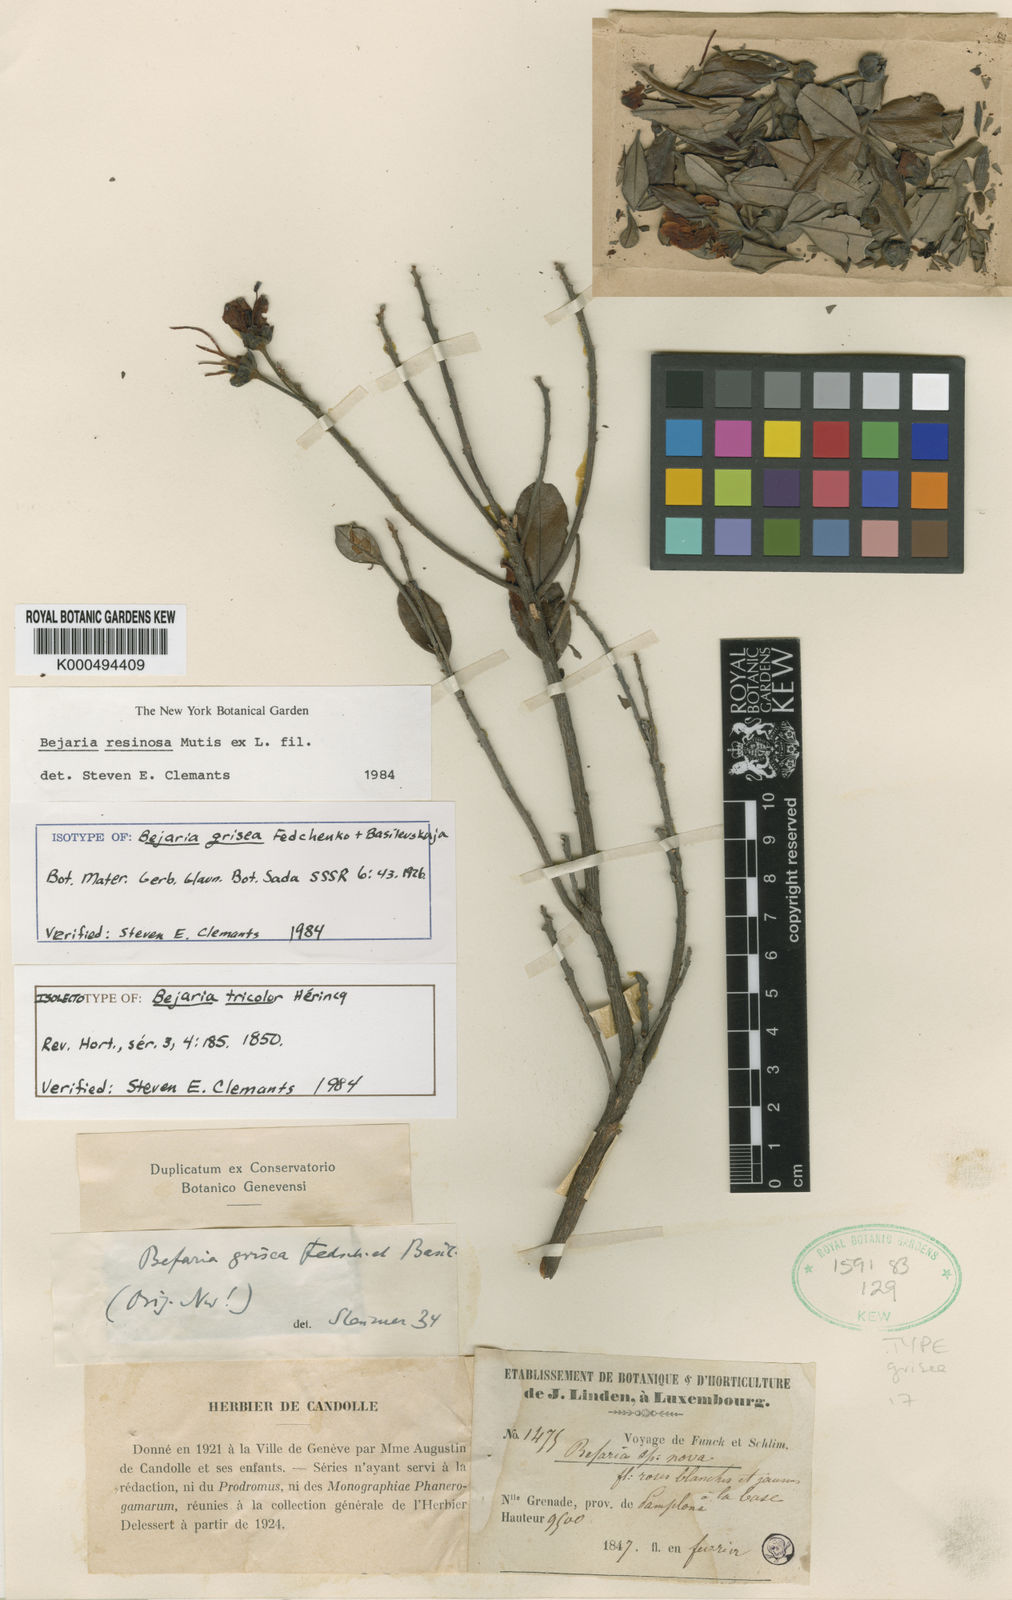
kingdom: Plantae
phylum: Tracheophyta
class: Magnoliopsida
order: Ericales
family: Ericaceae
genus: Bejaria
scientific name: Bejaria resinosa
